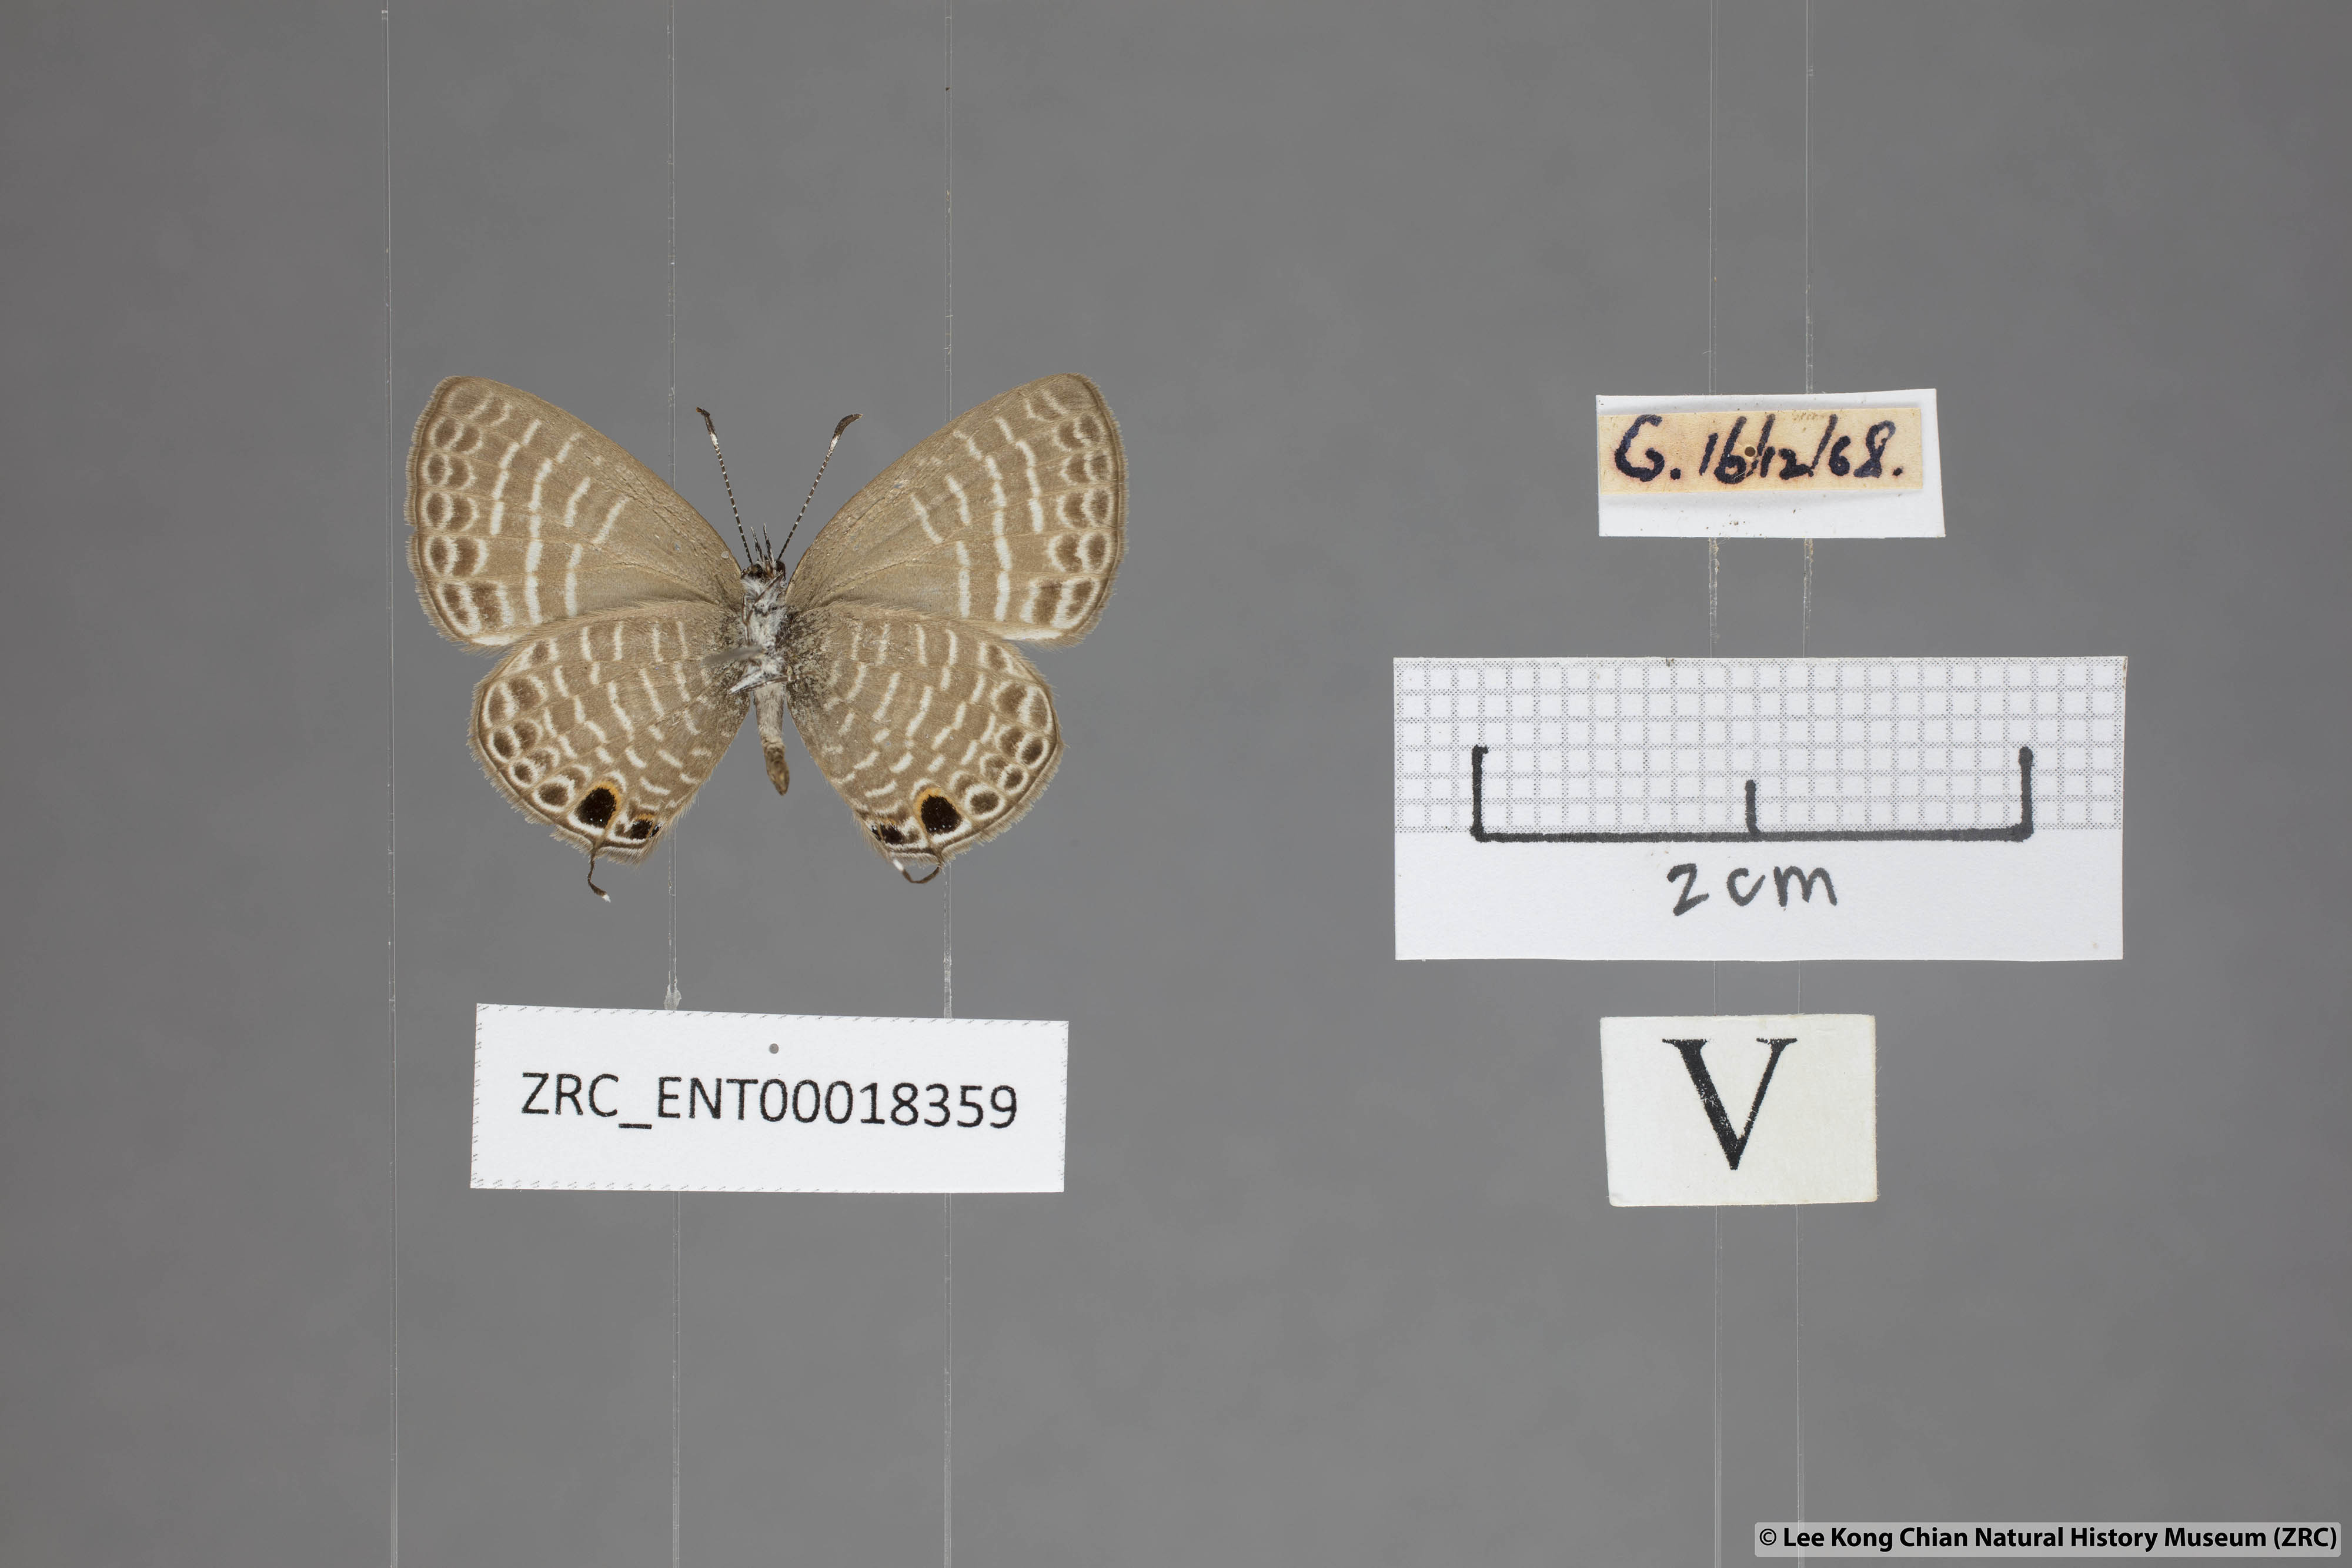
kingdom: Animalia
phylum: Arthropoda
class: Insecta
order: Lepidoptera
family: Lycaenidae
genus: Nacaduba
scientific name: Nacaduba hermus
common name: Pale four-line blue
